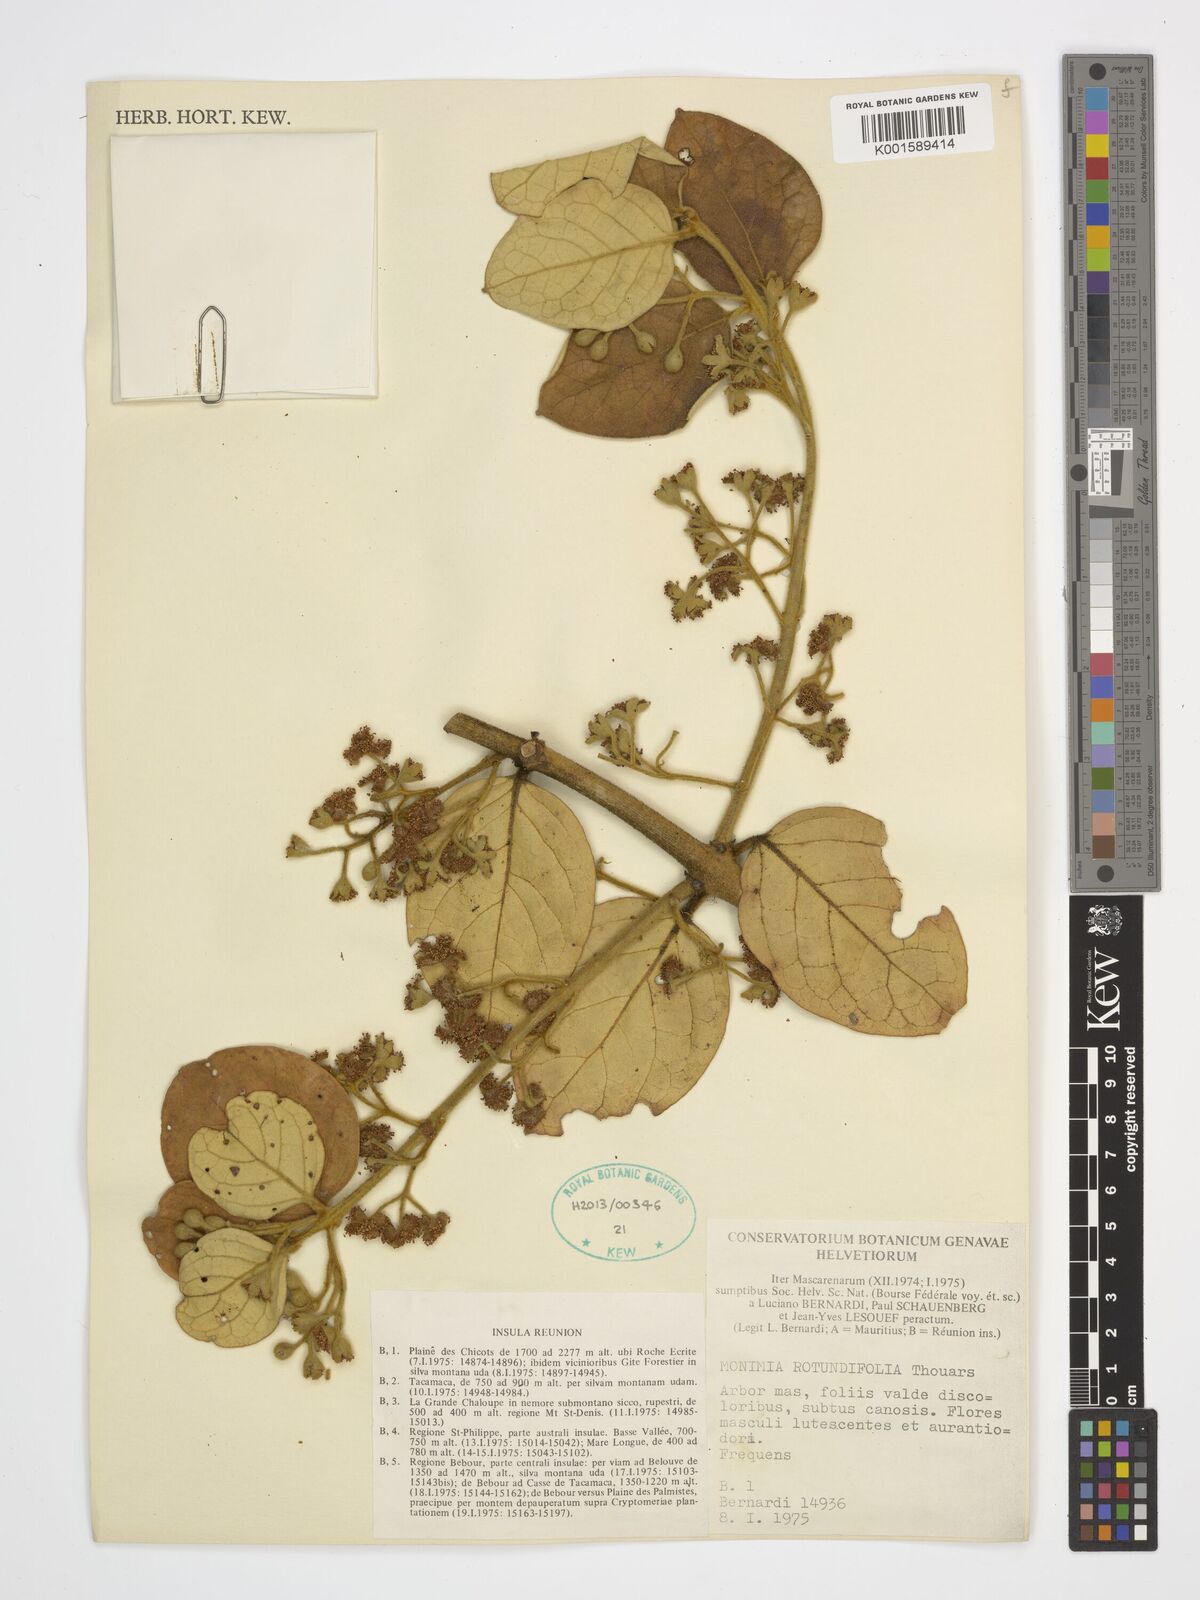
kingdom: Plantae
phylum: Tracheophyta
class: Magnoliopsida
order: Laurales
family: Monimiaceae
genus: Monimia
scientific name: Monimia rotundifolia
